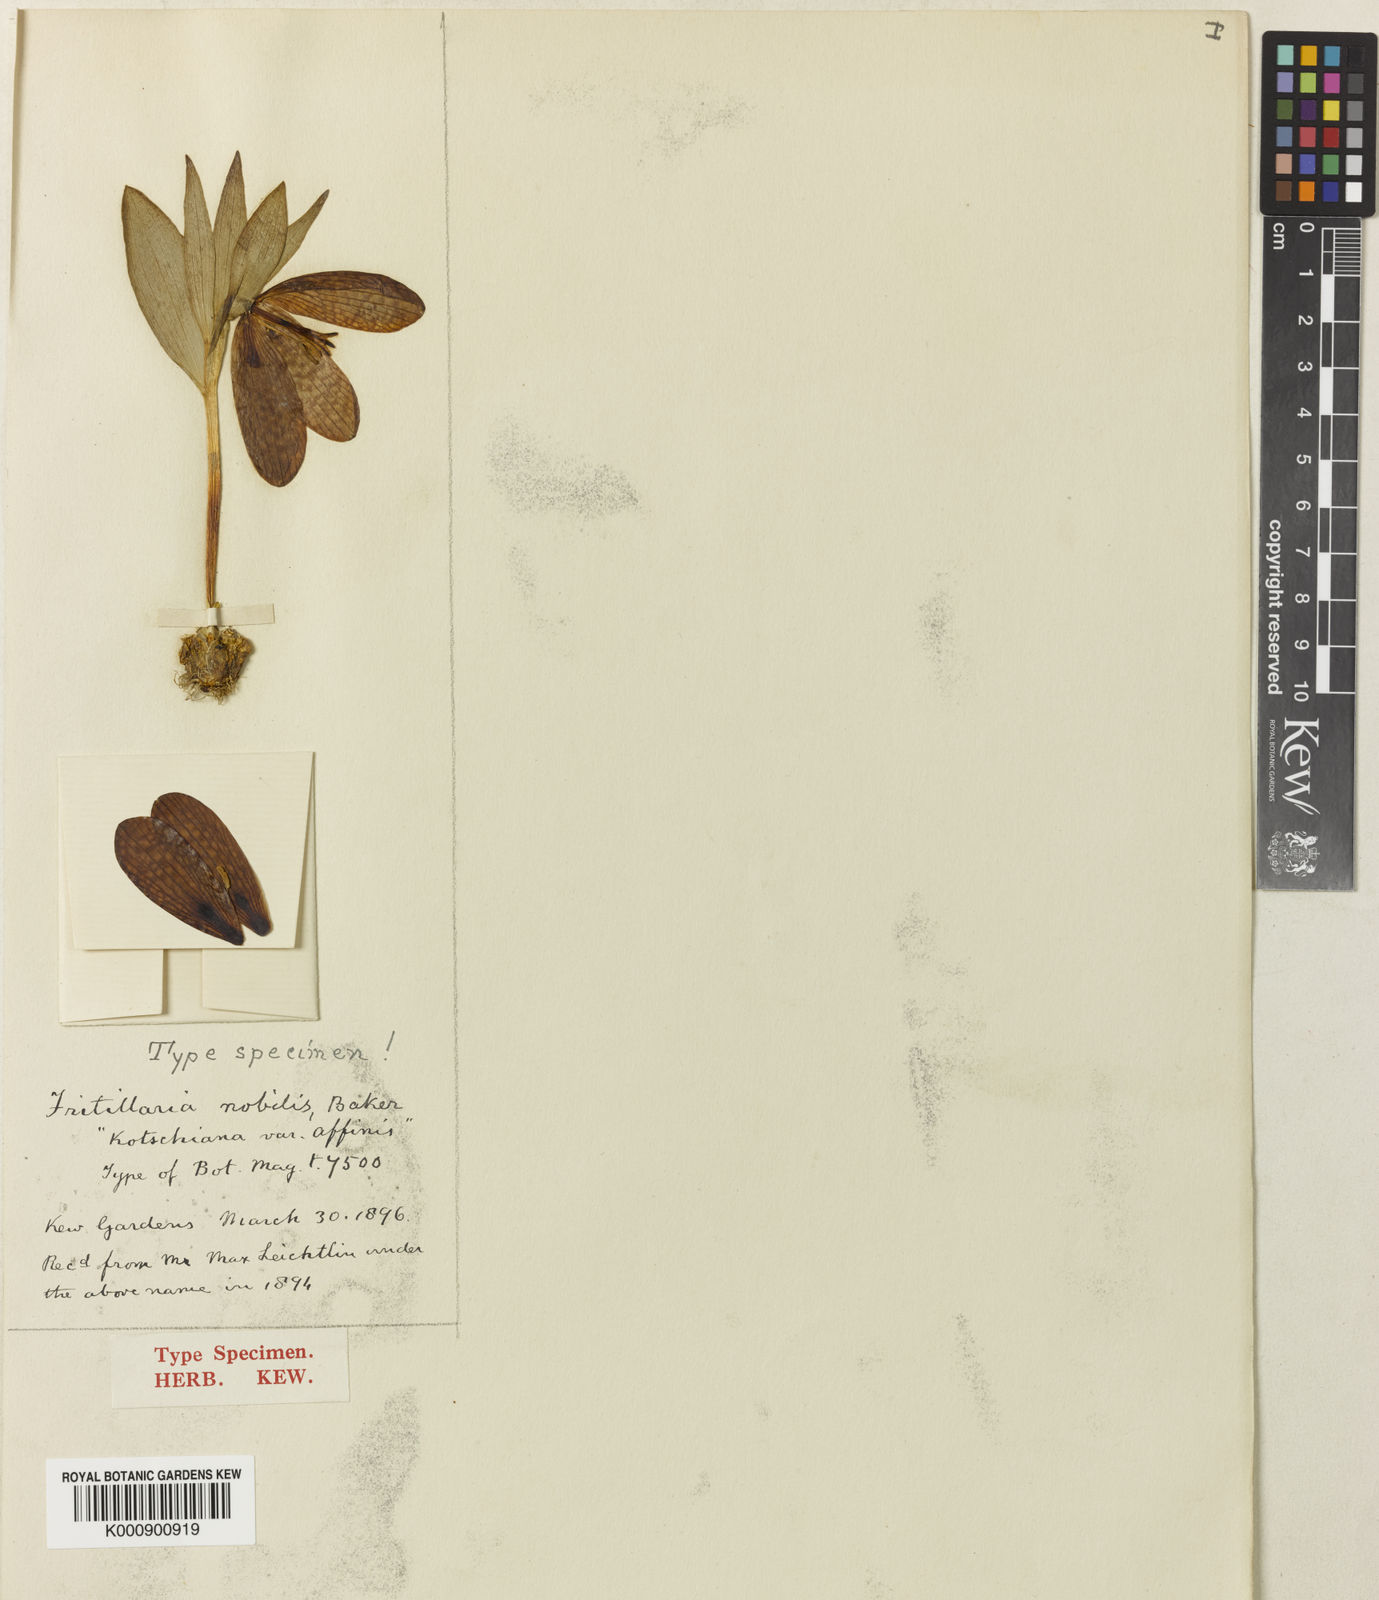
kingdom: Plantae
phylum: Tracheophyta
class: Liliopsida
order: Liliales
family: Liliaceae
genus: Fritillaria
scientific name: Fritillaria latifolia
